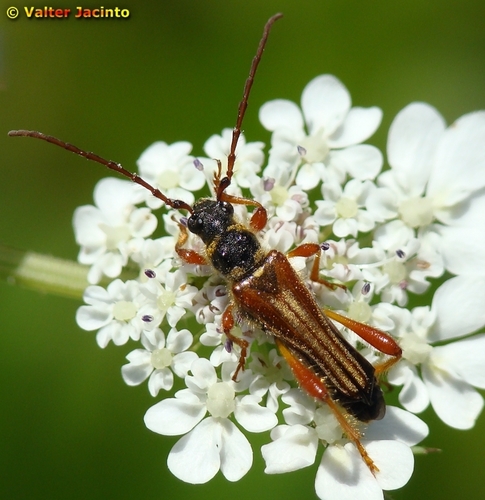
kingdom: Animalia
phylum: Arthropoda
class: Insecta
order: Coleoptera
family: Cerambycidae
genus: Stenopterus
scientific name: Stenopterus mauritanicus
